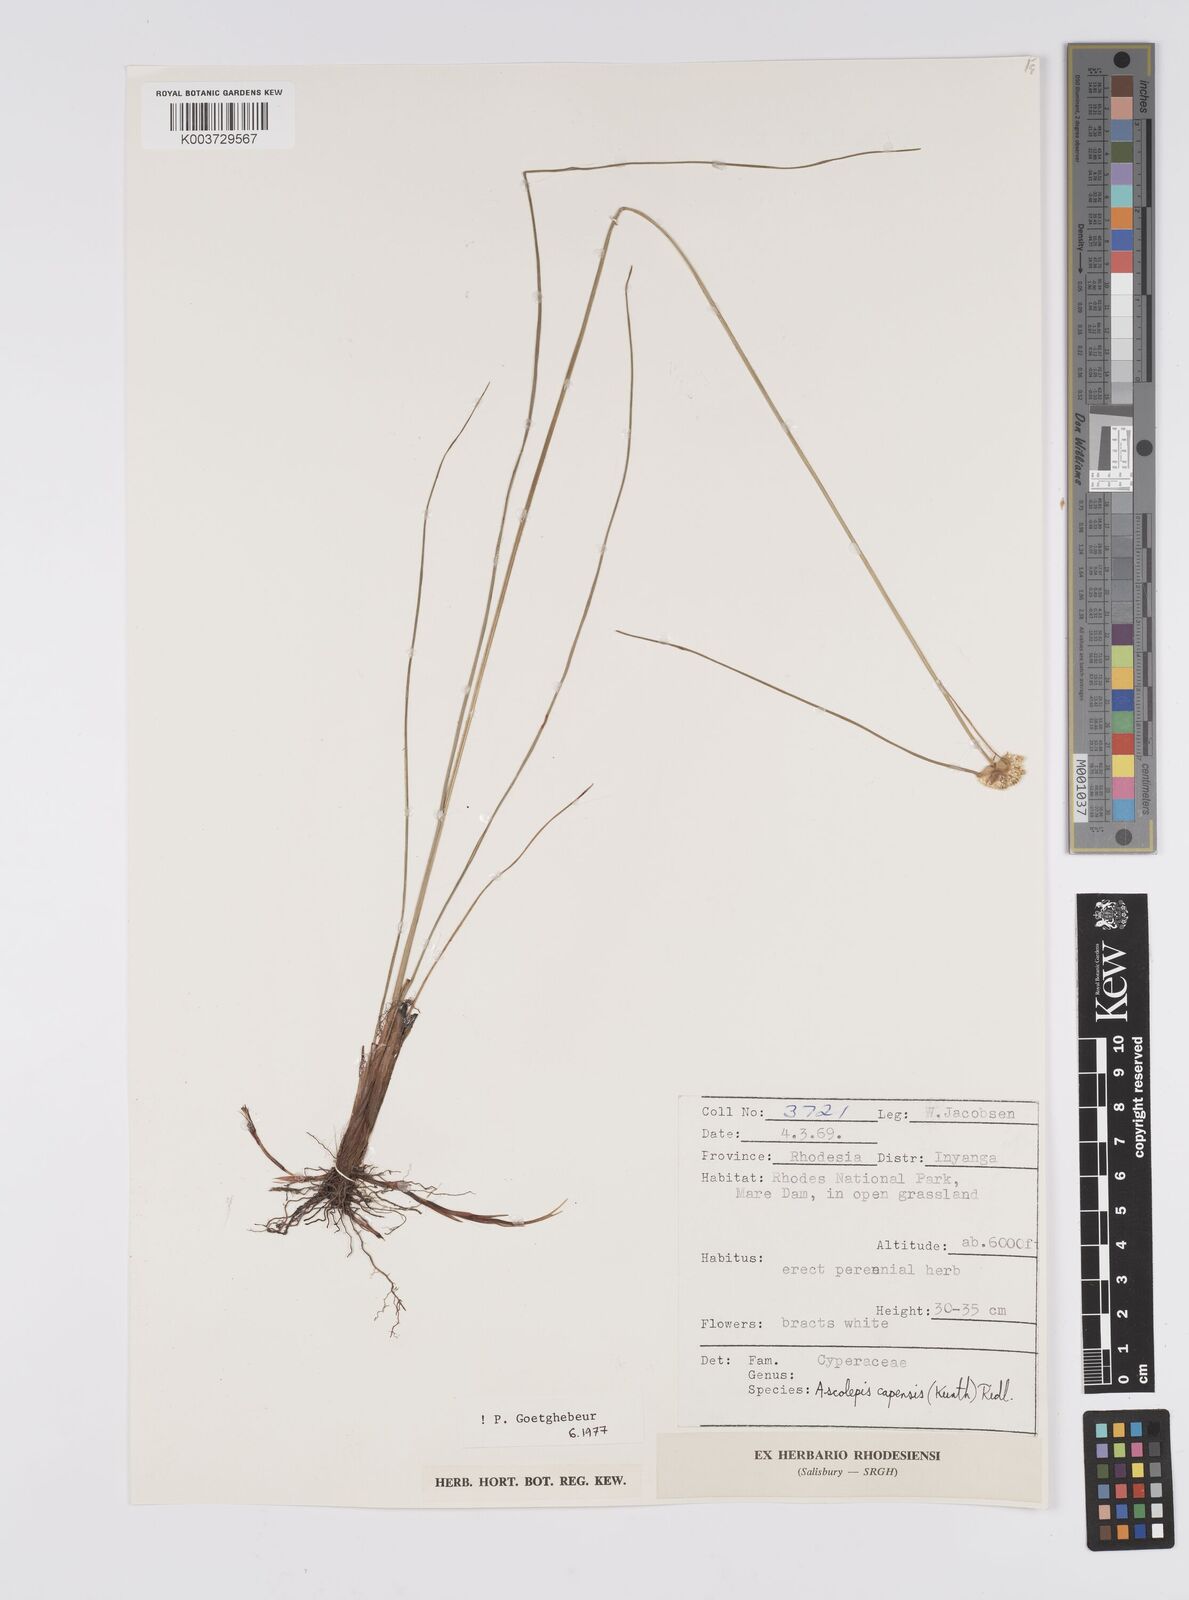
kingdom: Plantae
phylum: Tracheophyta
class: Liliopsida
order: Poales
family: Cyperaceae
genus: Cyperus
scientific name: Cyperus
